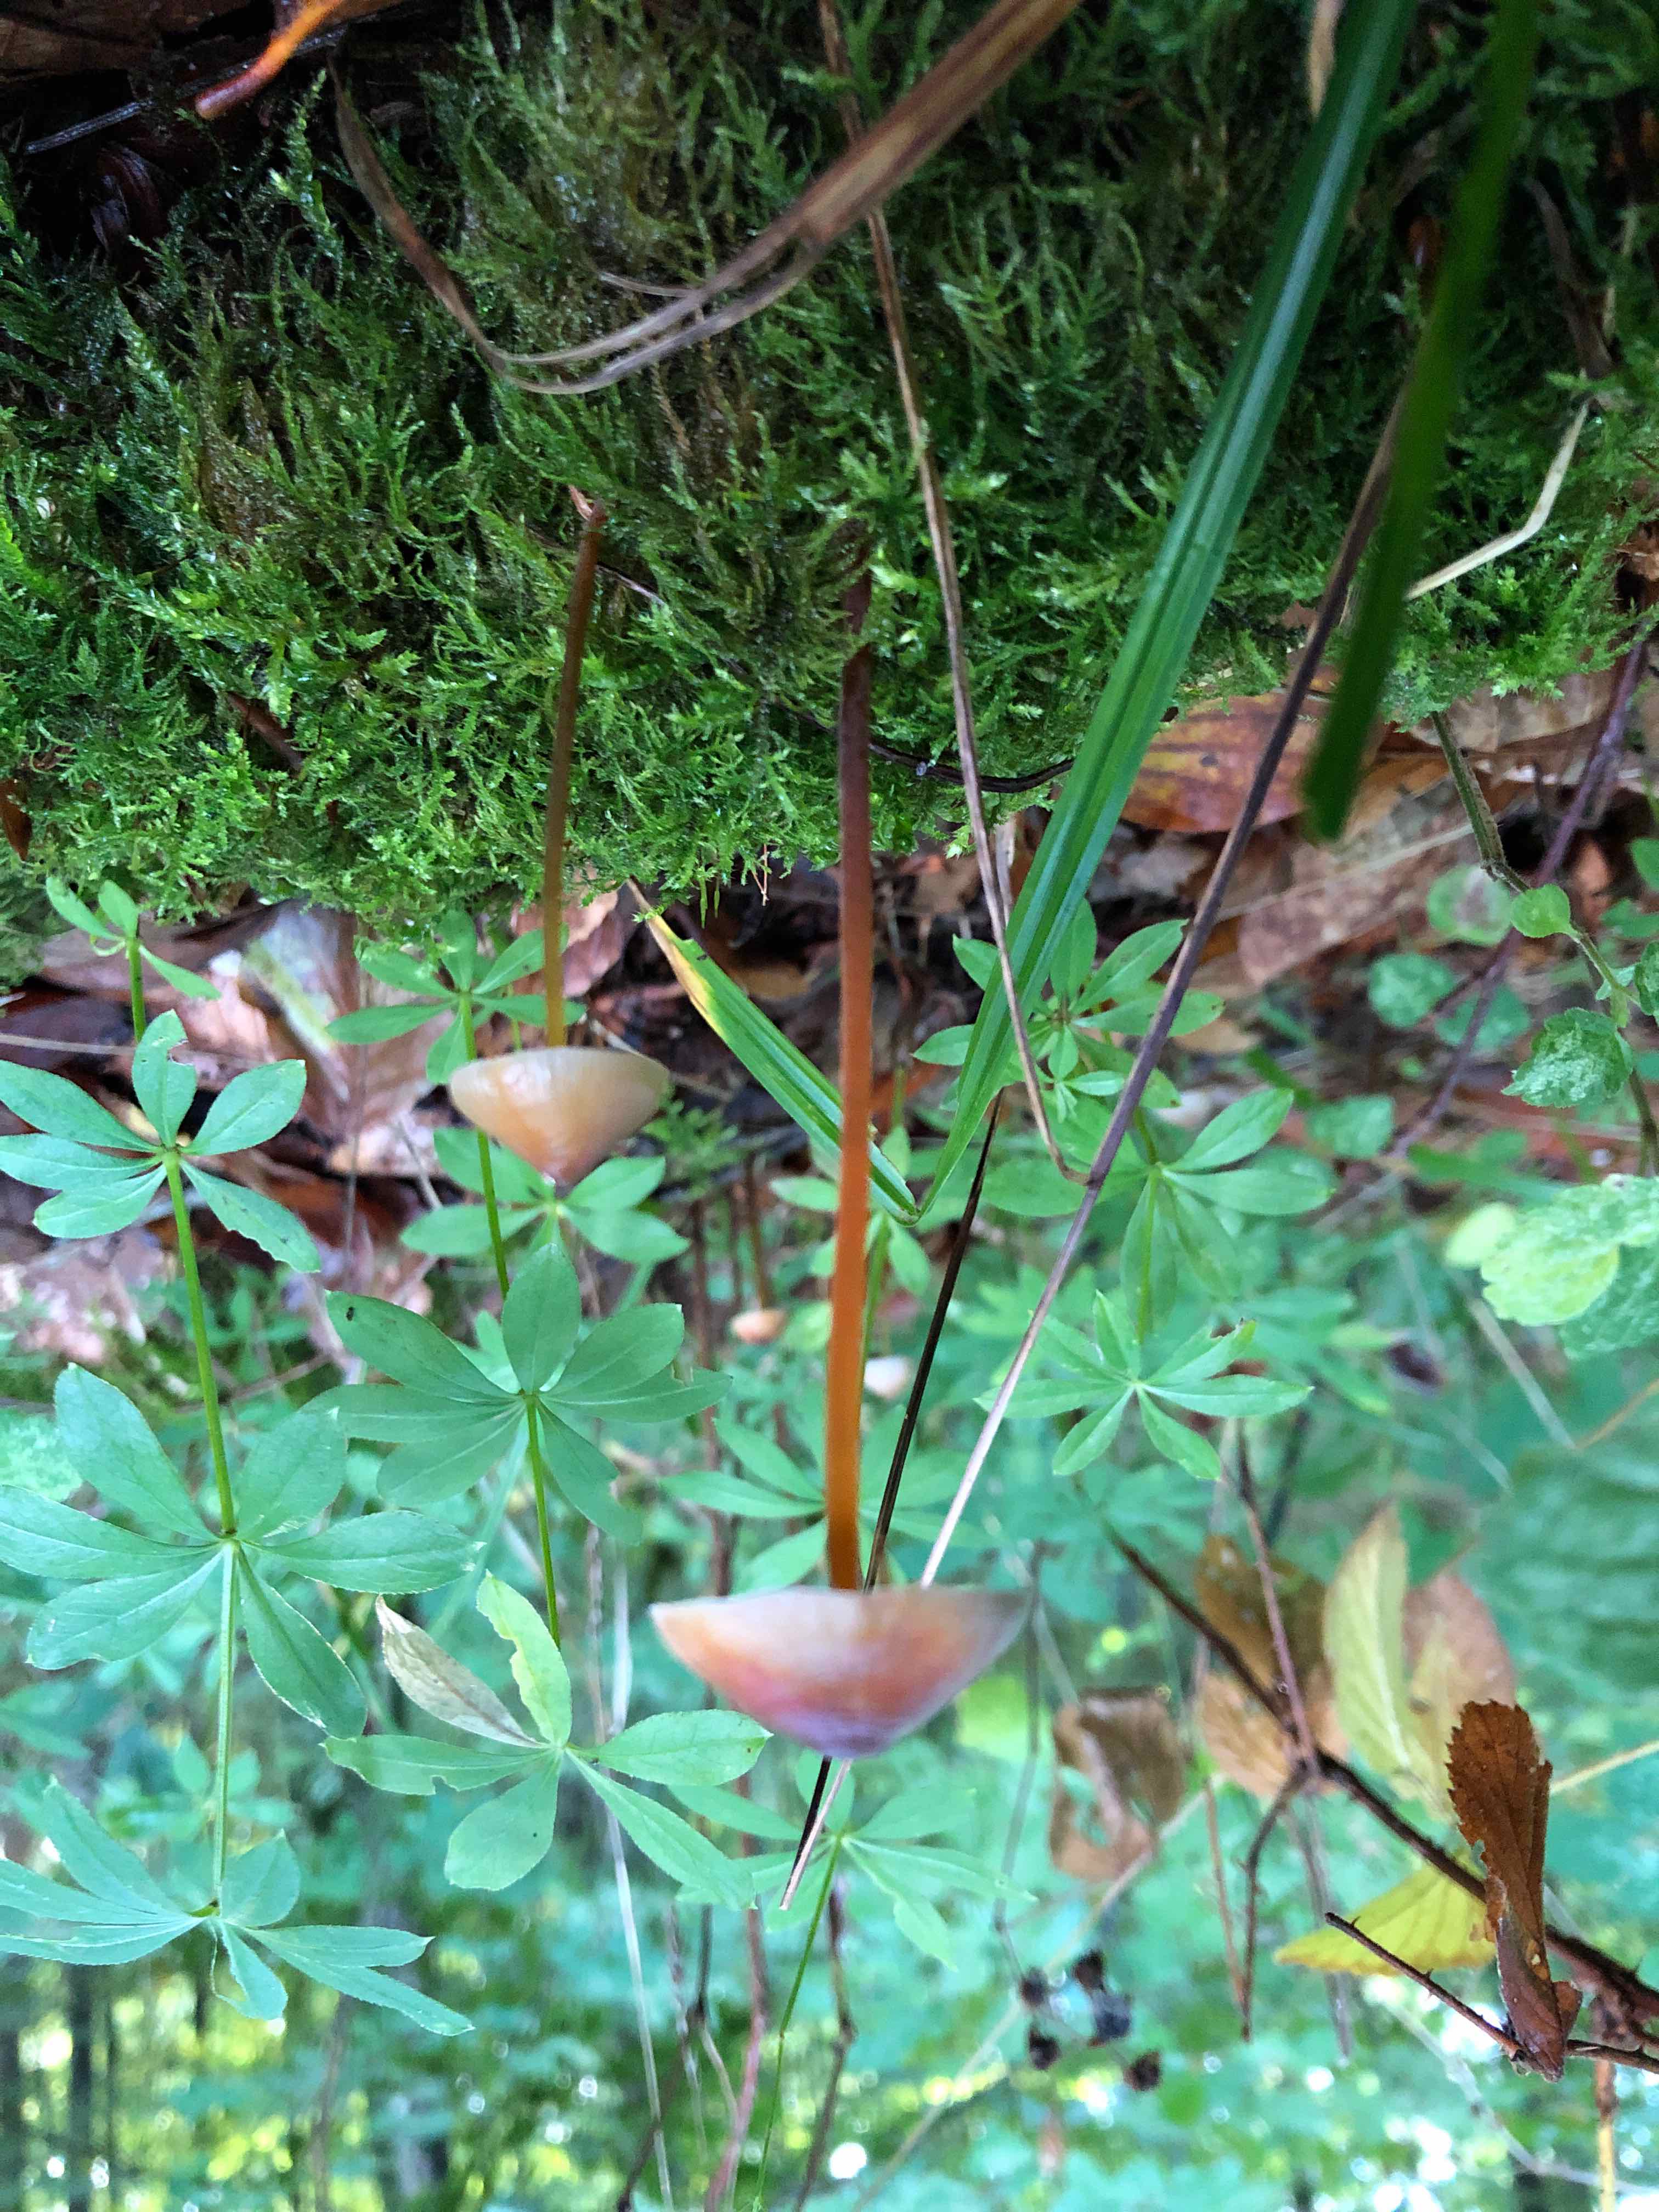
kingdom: Fungi
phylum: Basidiomycota
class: Agaricomycetes
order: Agaricales
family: Mycenaceae
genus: Mycena
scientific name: Mycena crocata
